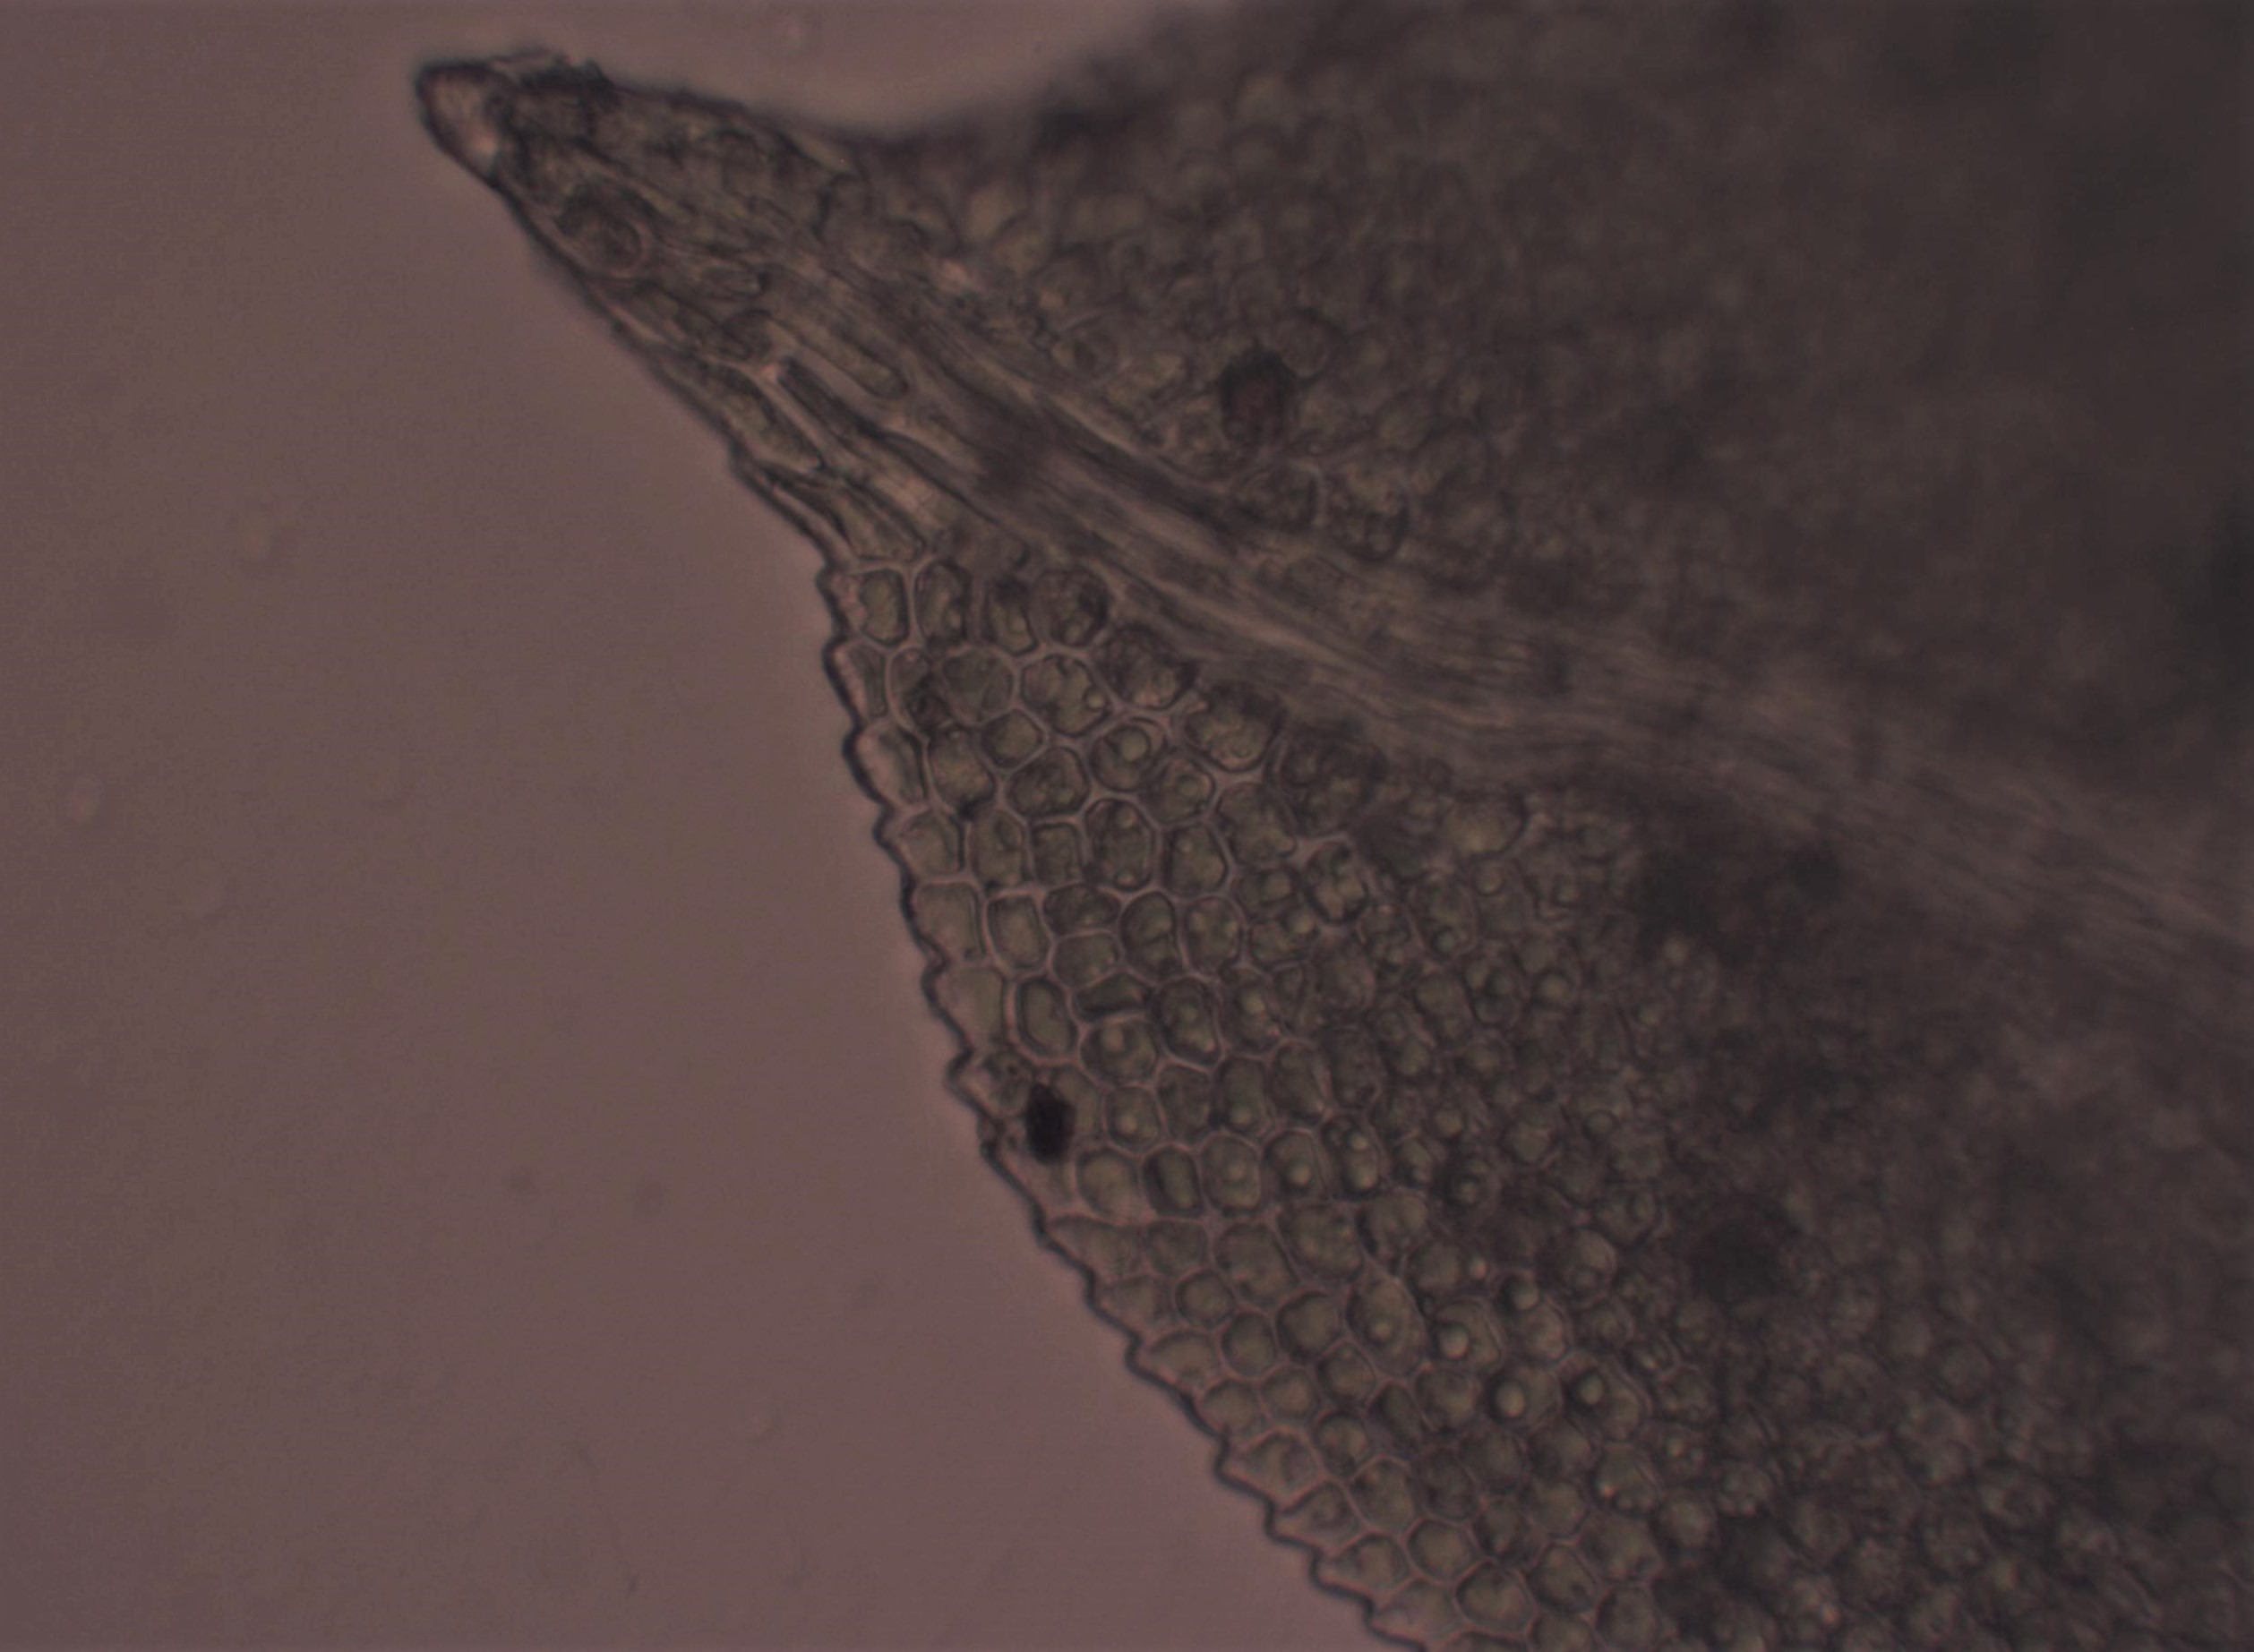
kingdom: Plantae
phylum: Bryophyta
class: Bryopsida
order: Dicranales
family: Fissidentaceae
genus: Fissidens
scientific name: Fissidens taxifolius
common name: Taksbladet rademos
